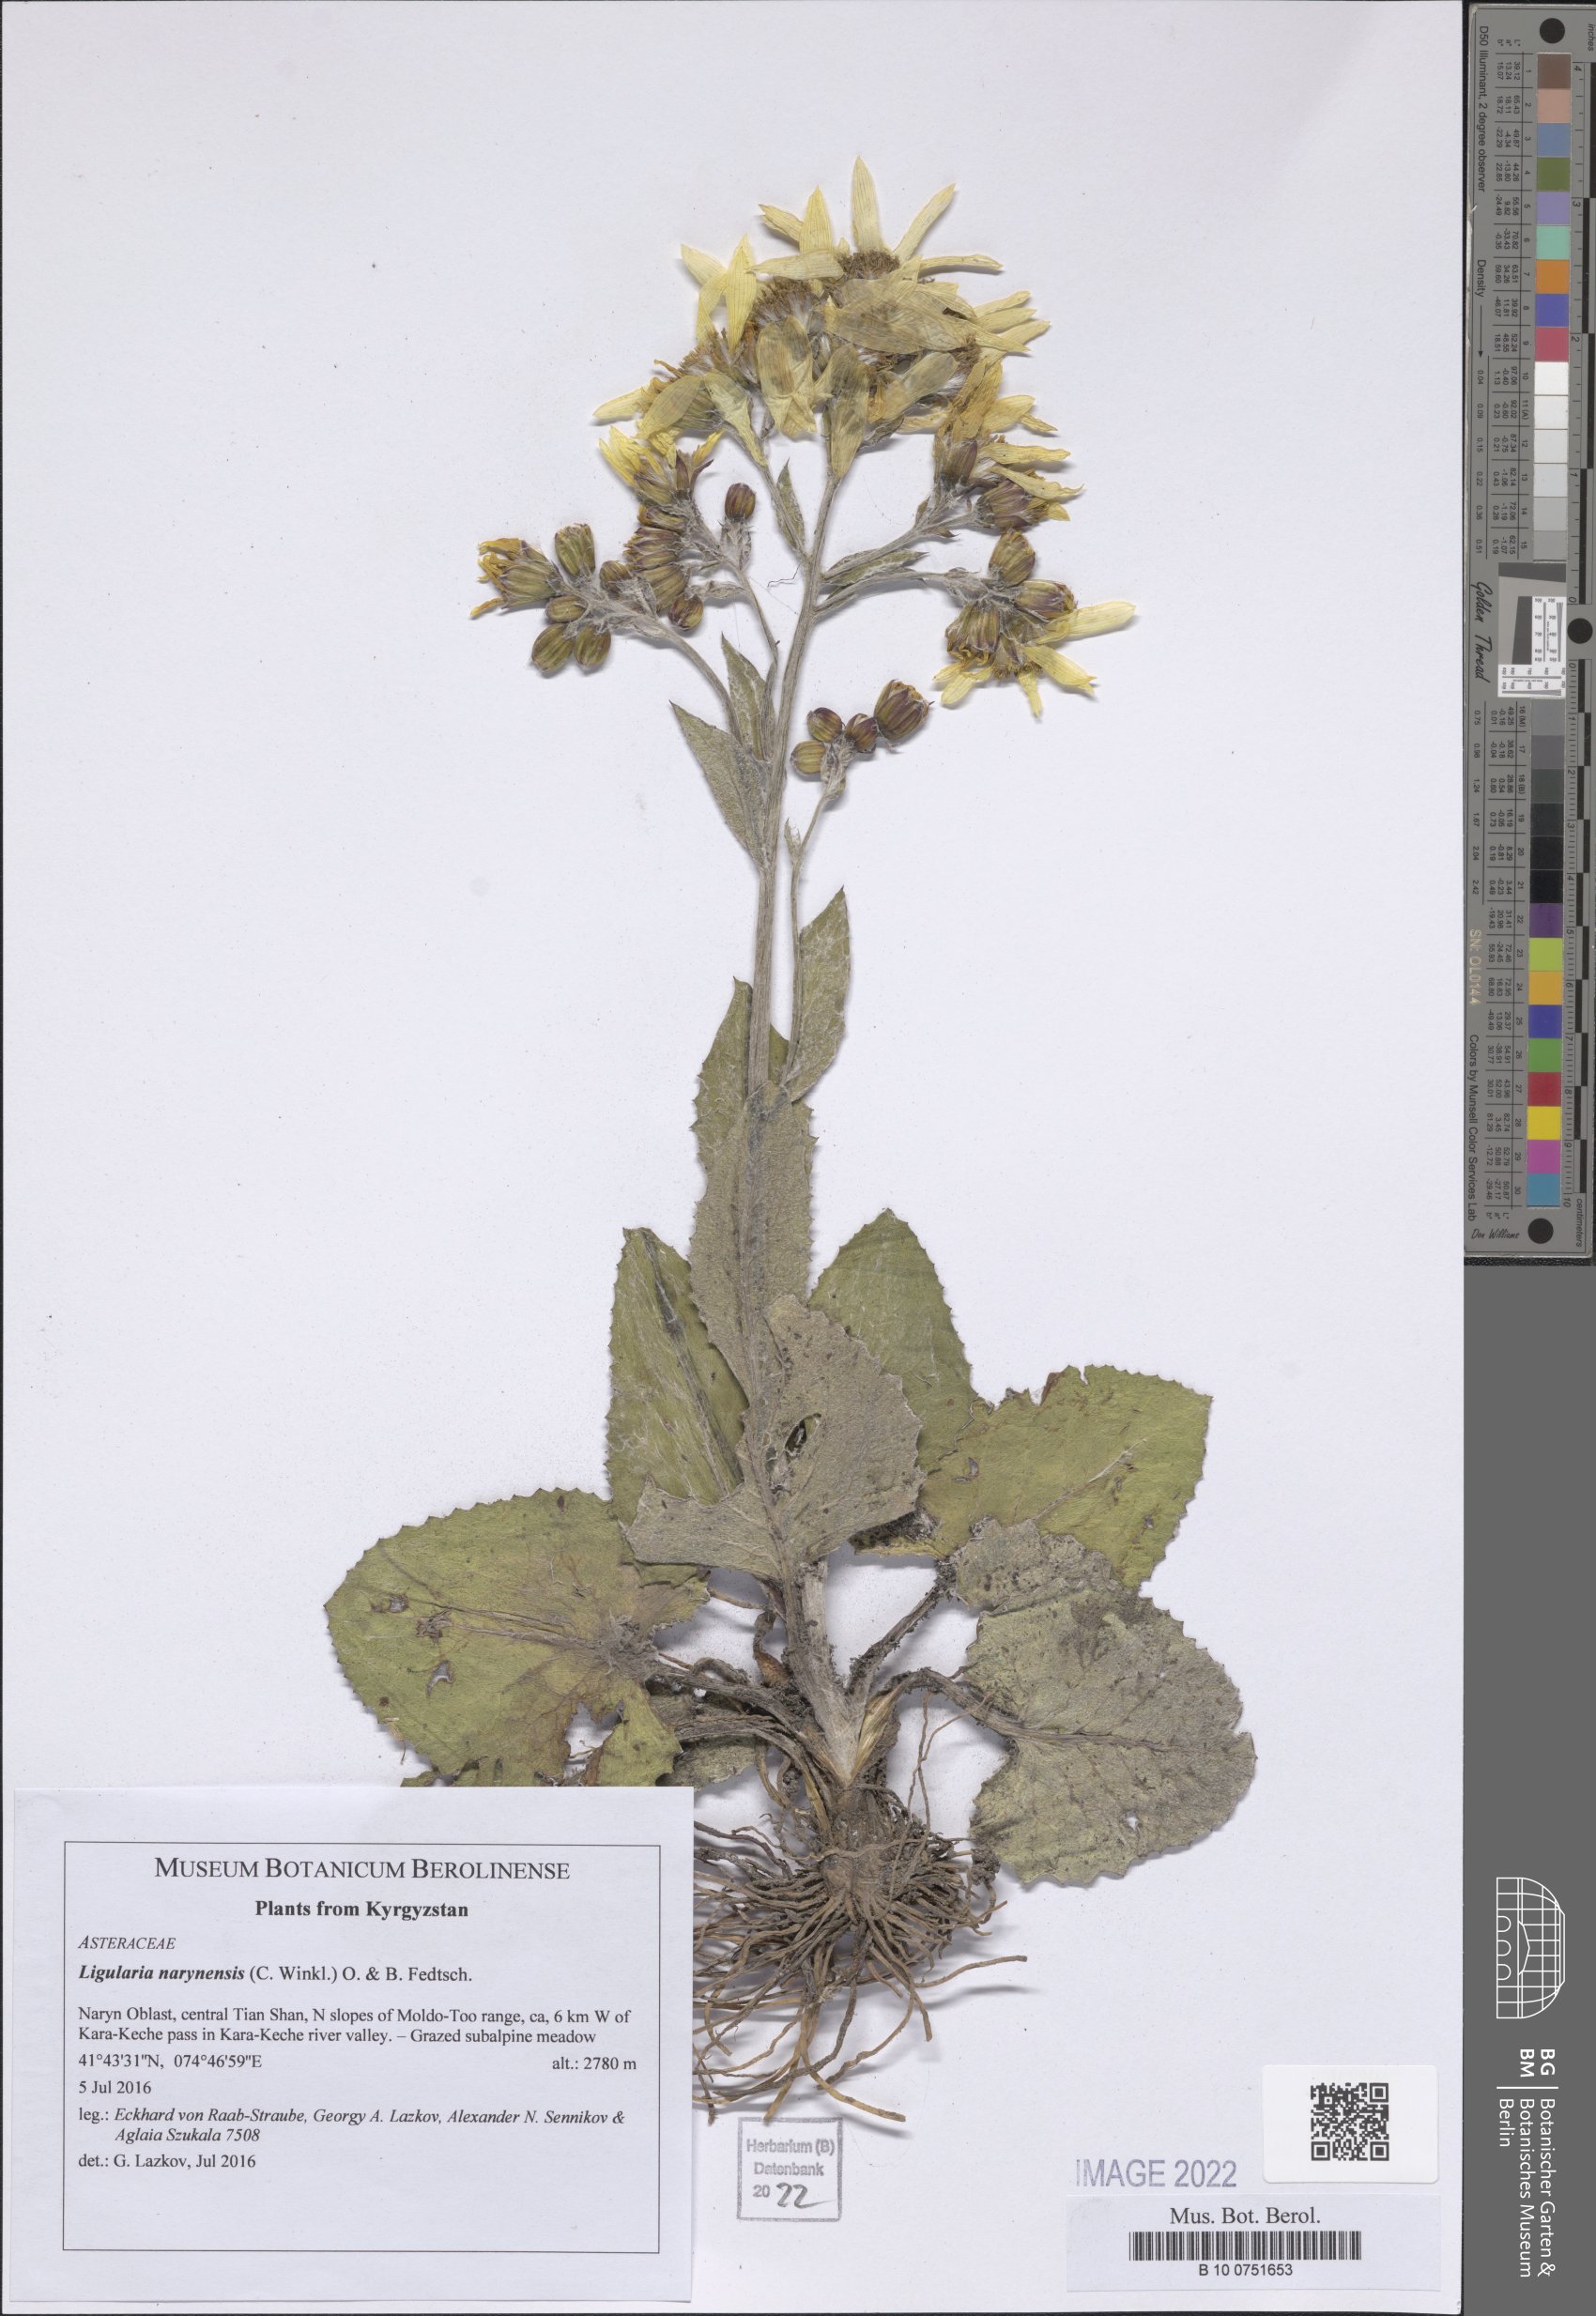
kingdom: Plantae
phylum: Tracheophyta
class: Magnoliopsida
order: Asterales
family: Asteraceae
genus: Vickifunkia
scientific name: Vickifunkia narynensis
